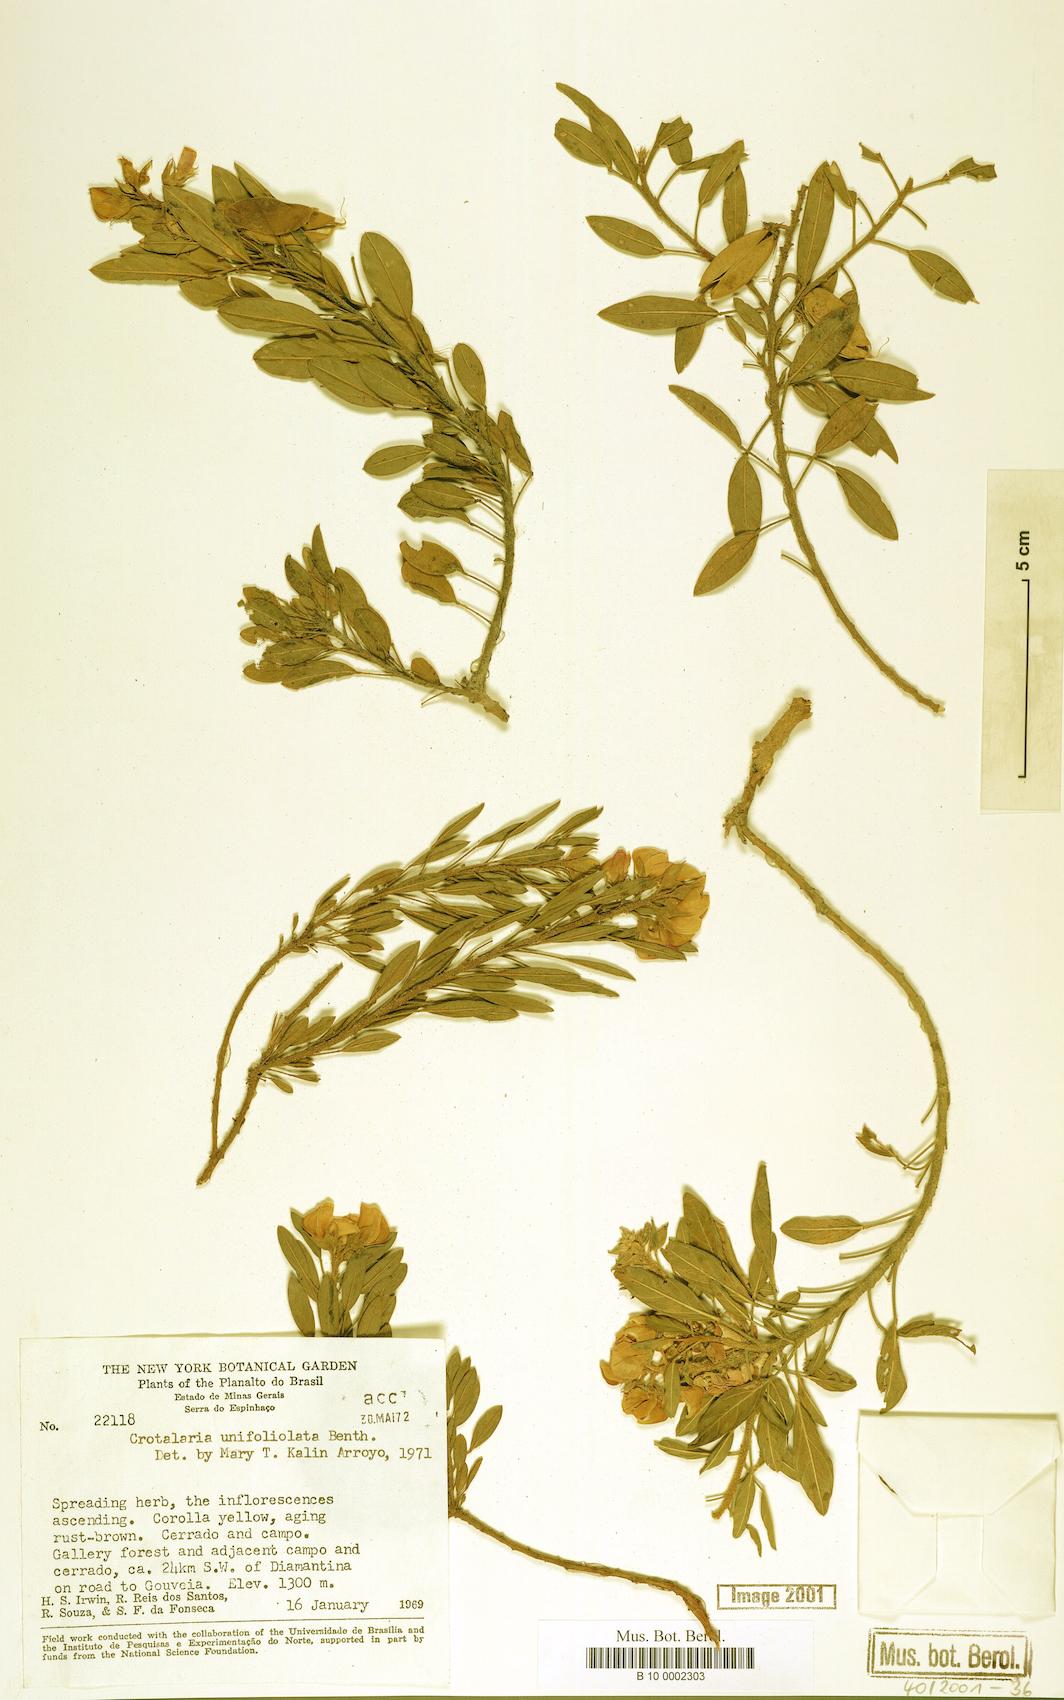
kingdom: Plantae
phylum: Tracheophyta
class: Magnoliopsida
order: Fabales
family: Fabaceae
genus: Crotalaria
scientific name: Crotalaria unifoliolata
